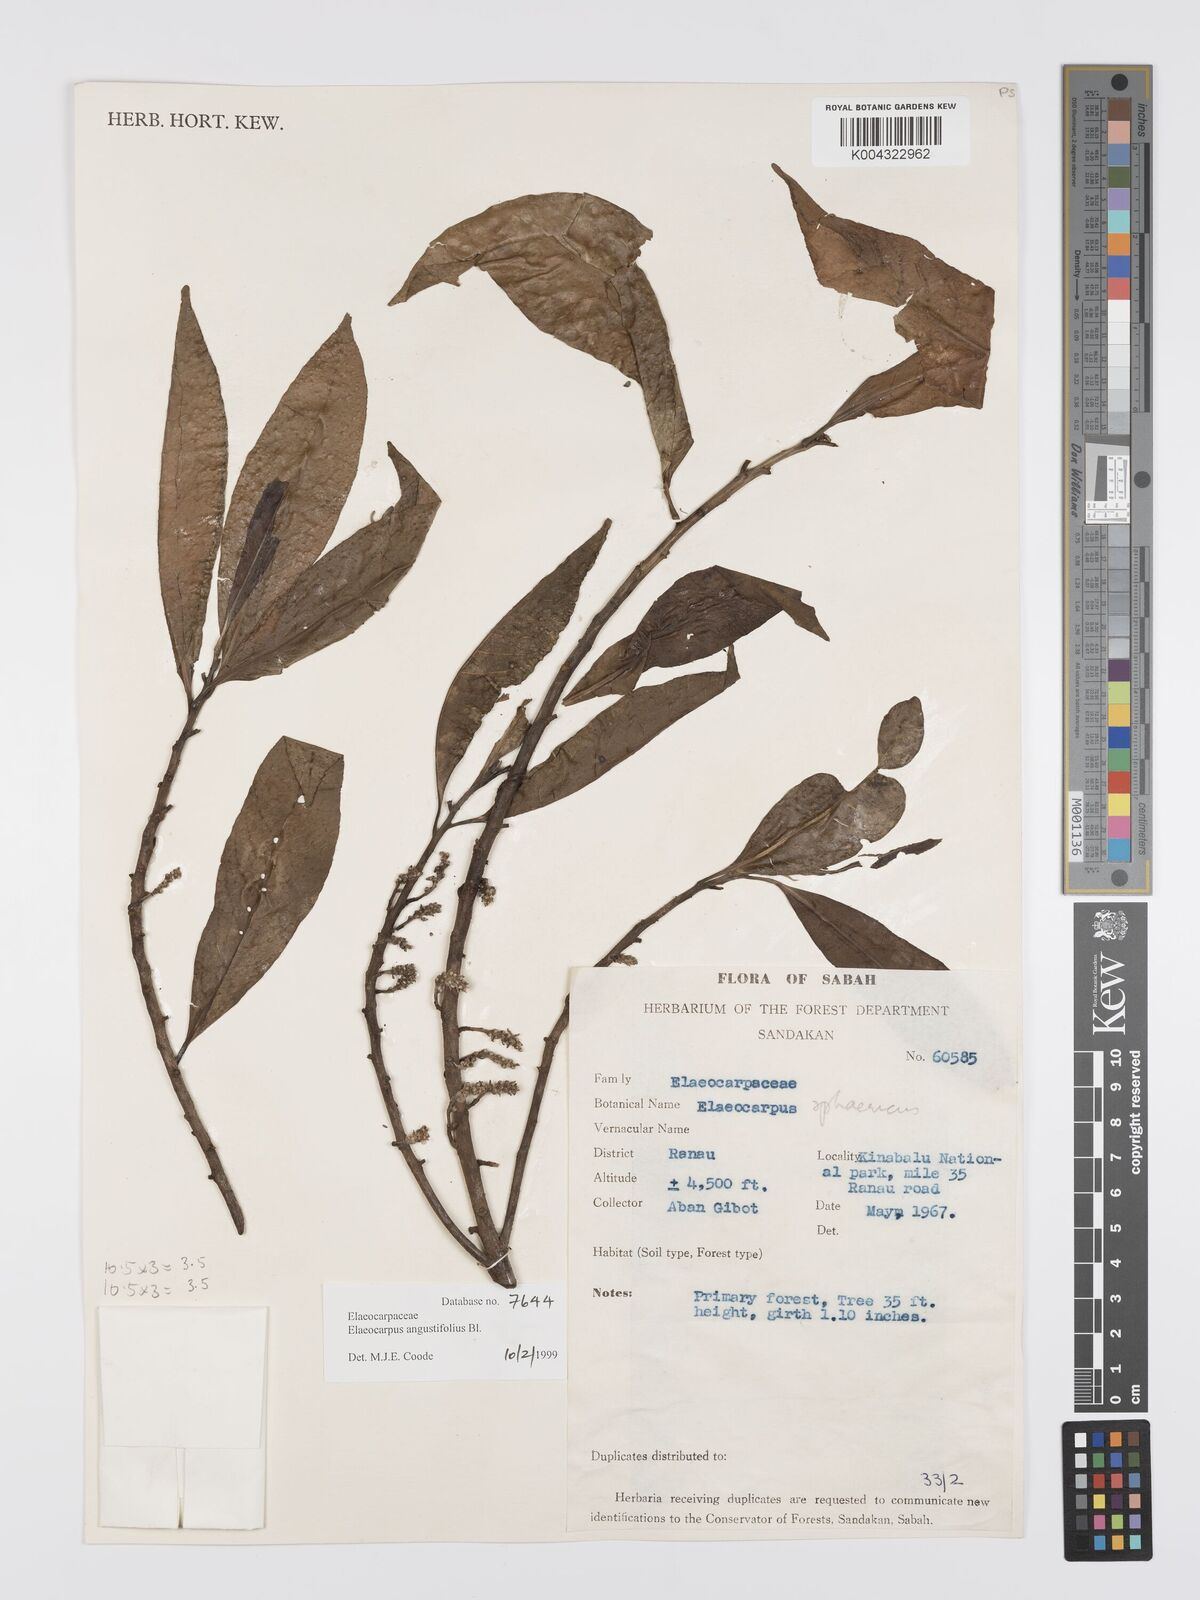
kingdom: Plantae
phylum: Tracheophyta
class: Magnoliopsida
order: Oxalidales
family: Elaeocarpaceae
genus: Elaeocarpus
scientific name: Elaeocarpus
